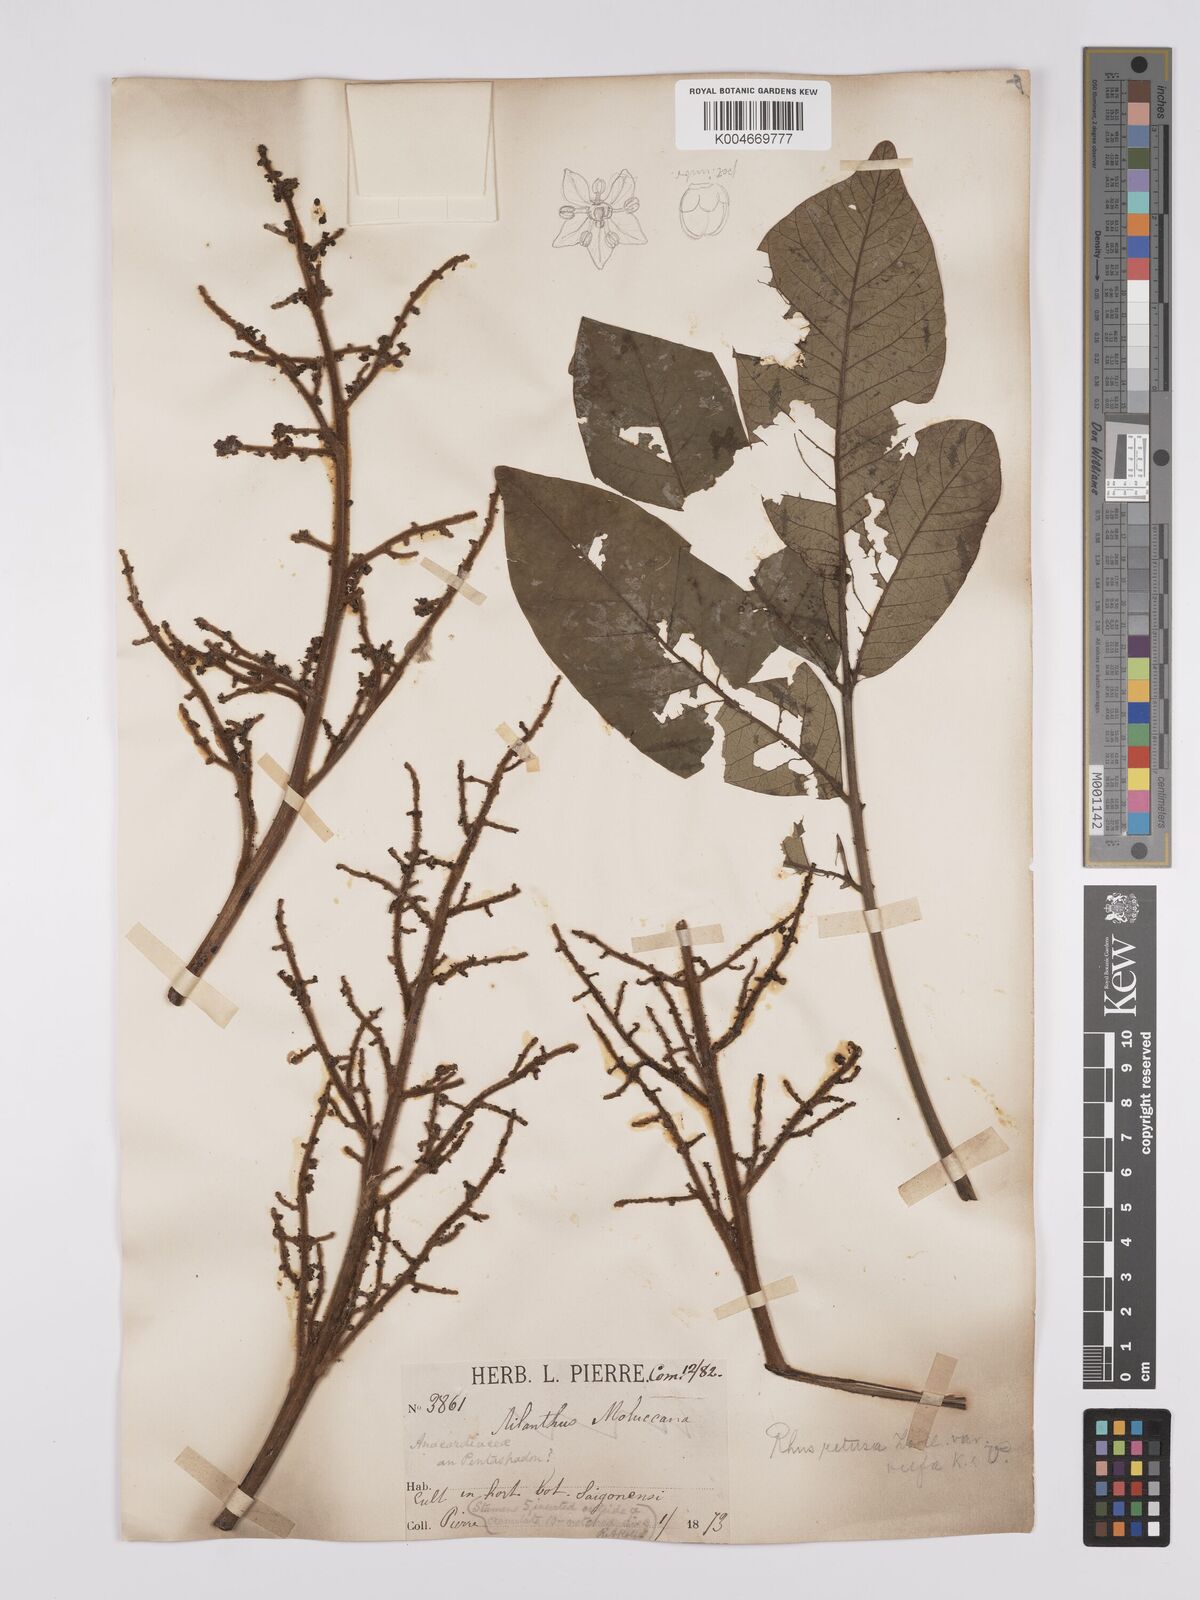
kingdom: Plantae
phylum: Tracheophyta
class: Magnoliopsida
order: Sapindales
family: Anacardiaceae
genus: Melanococca
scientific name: Melanococca tomentosa
